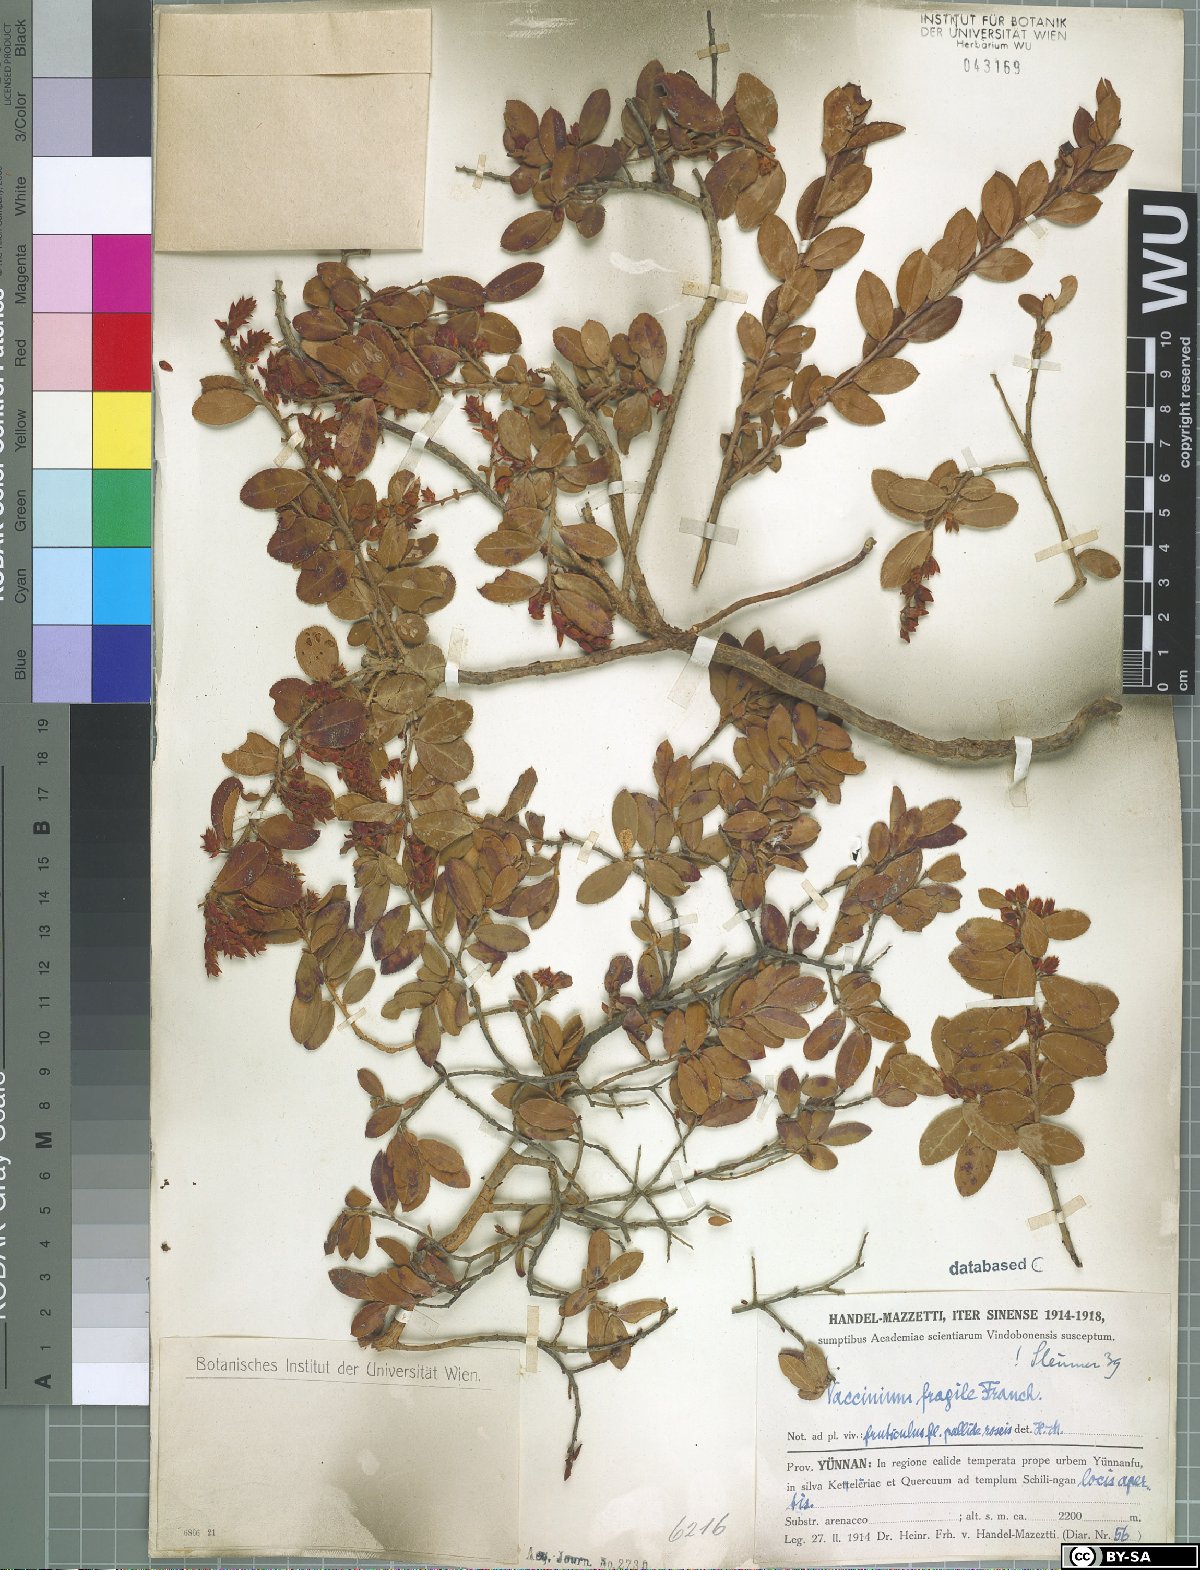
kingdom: Plantae
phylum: Tracheophyta
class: Magnoliopsida
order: Ericales
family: Ericaceae
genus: Vaccinium
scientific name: Vaccinium fragile
